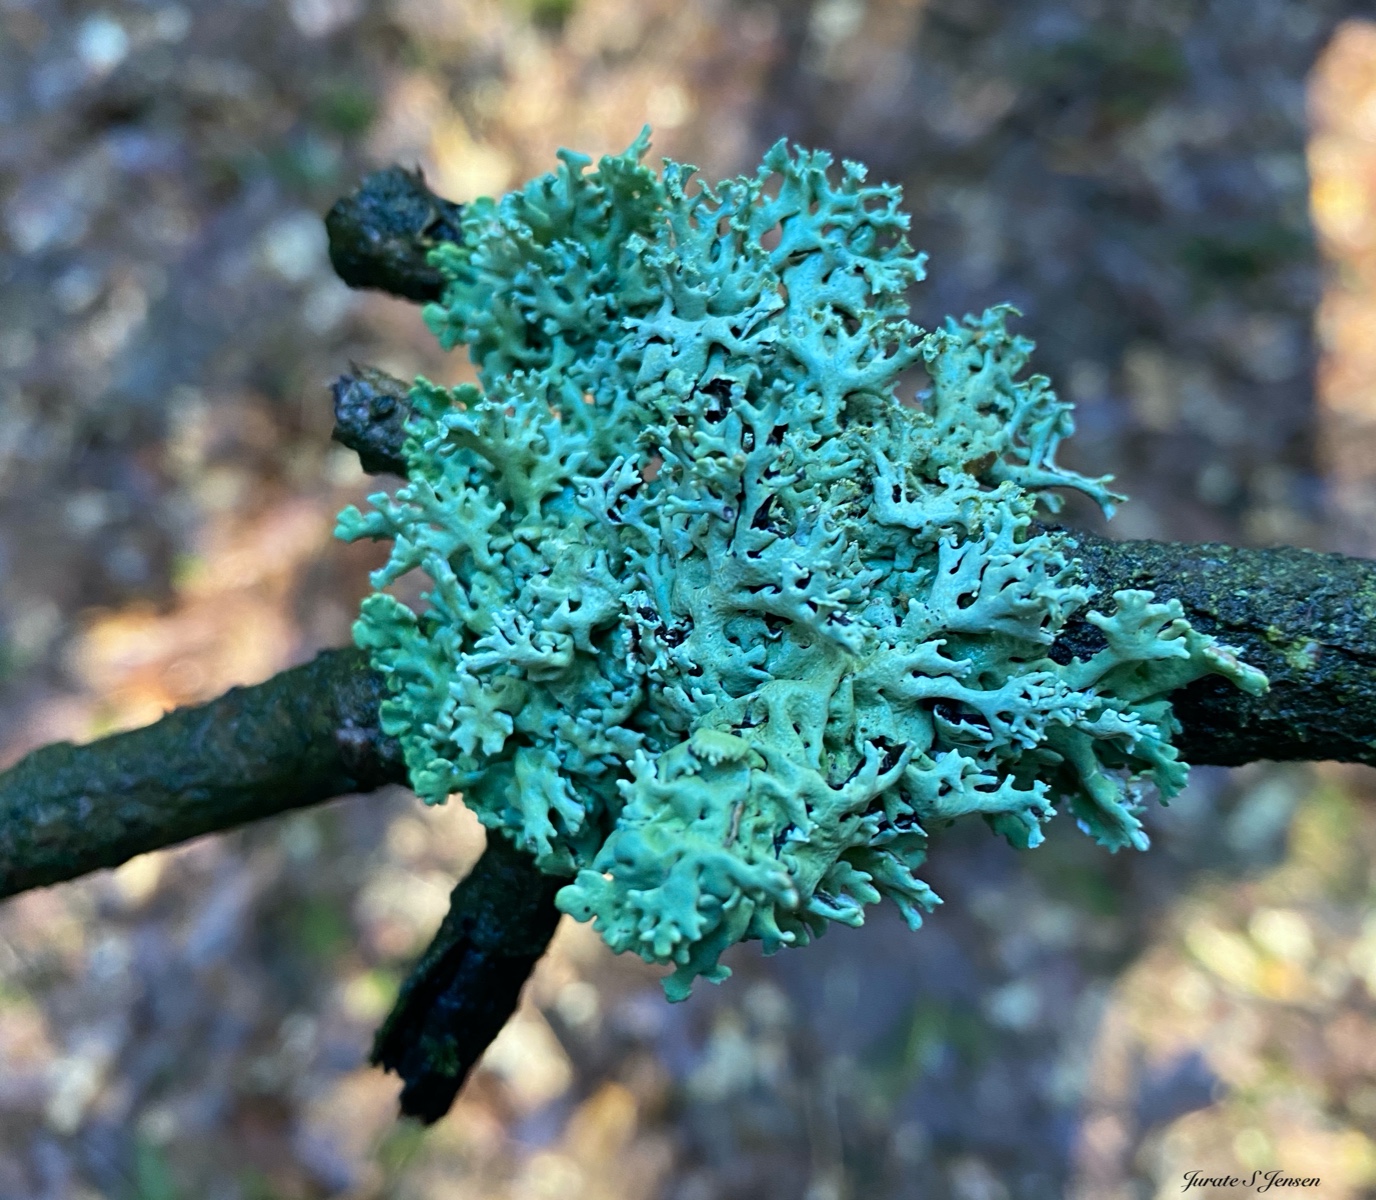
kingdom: Fungi
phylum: Ascomycota
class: Lecanoromycetes
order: Lecanorales
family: Parmeliaceae
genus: Hypogymnia
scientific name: Hypogymnia physodes
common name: almindelig kvistlav
